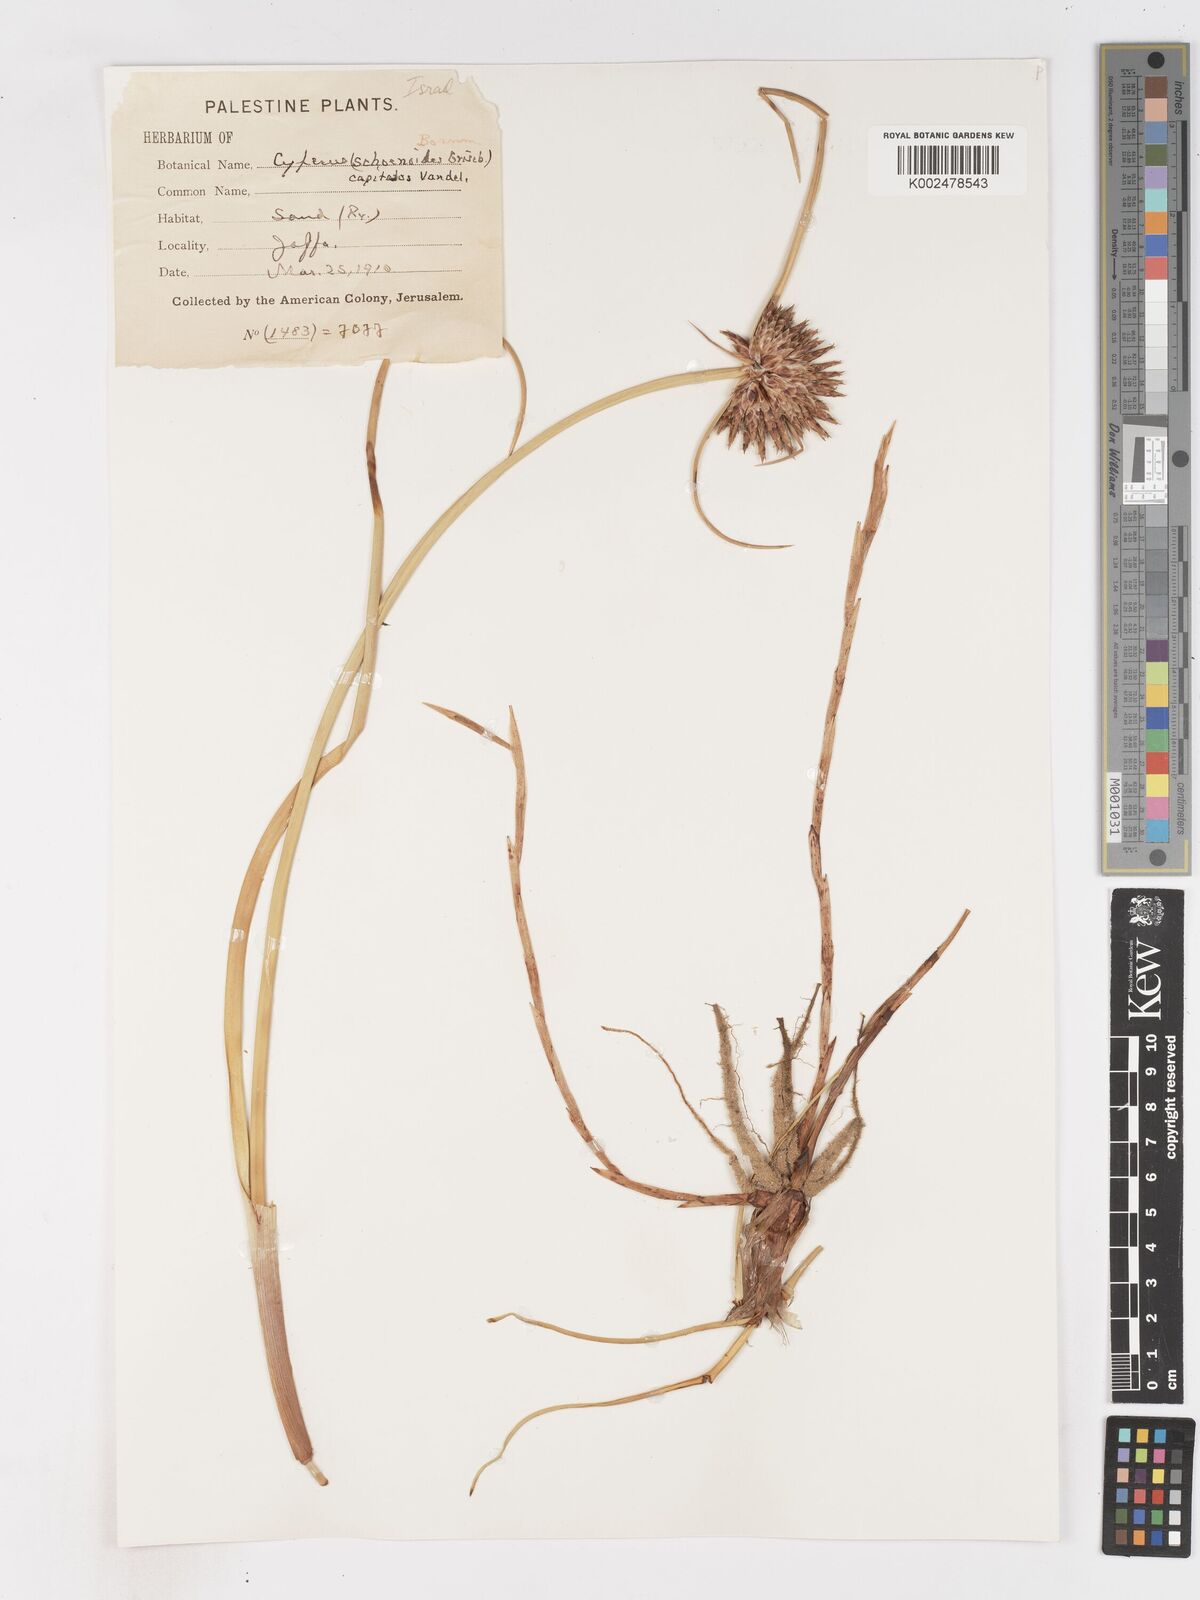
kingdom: Plantae
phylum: Tracheophyta
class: Liliopsida
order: Poales
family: Cyperaceae
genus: Cyperus
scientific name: Cyperus capitatus
